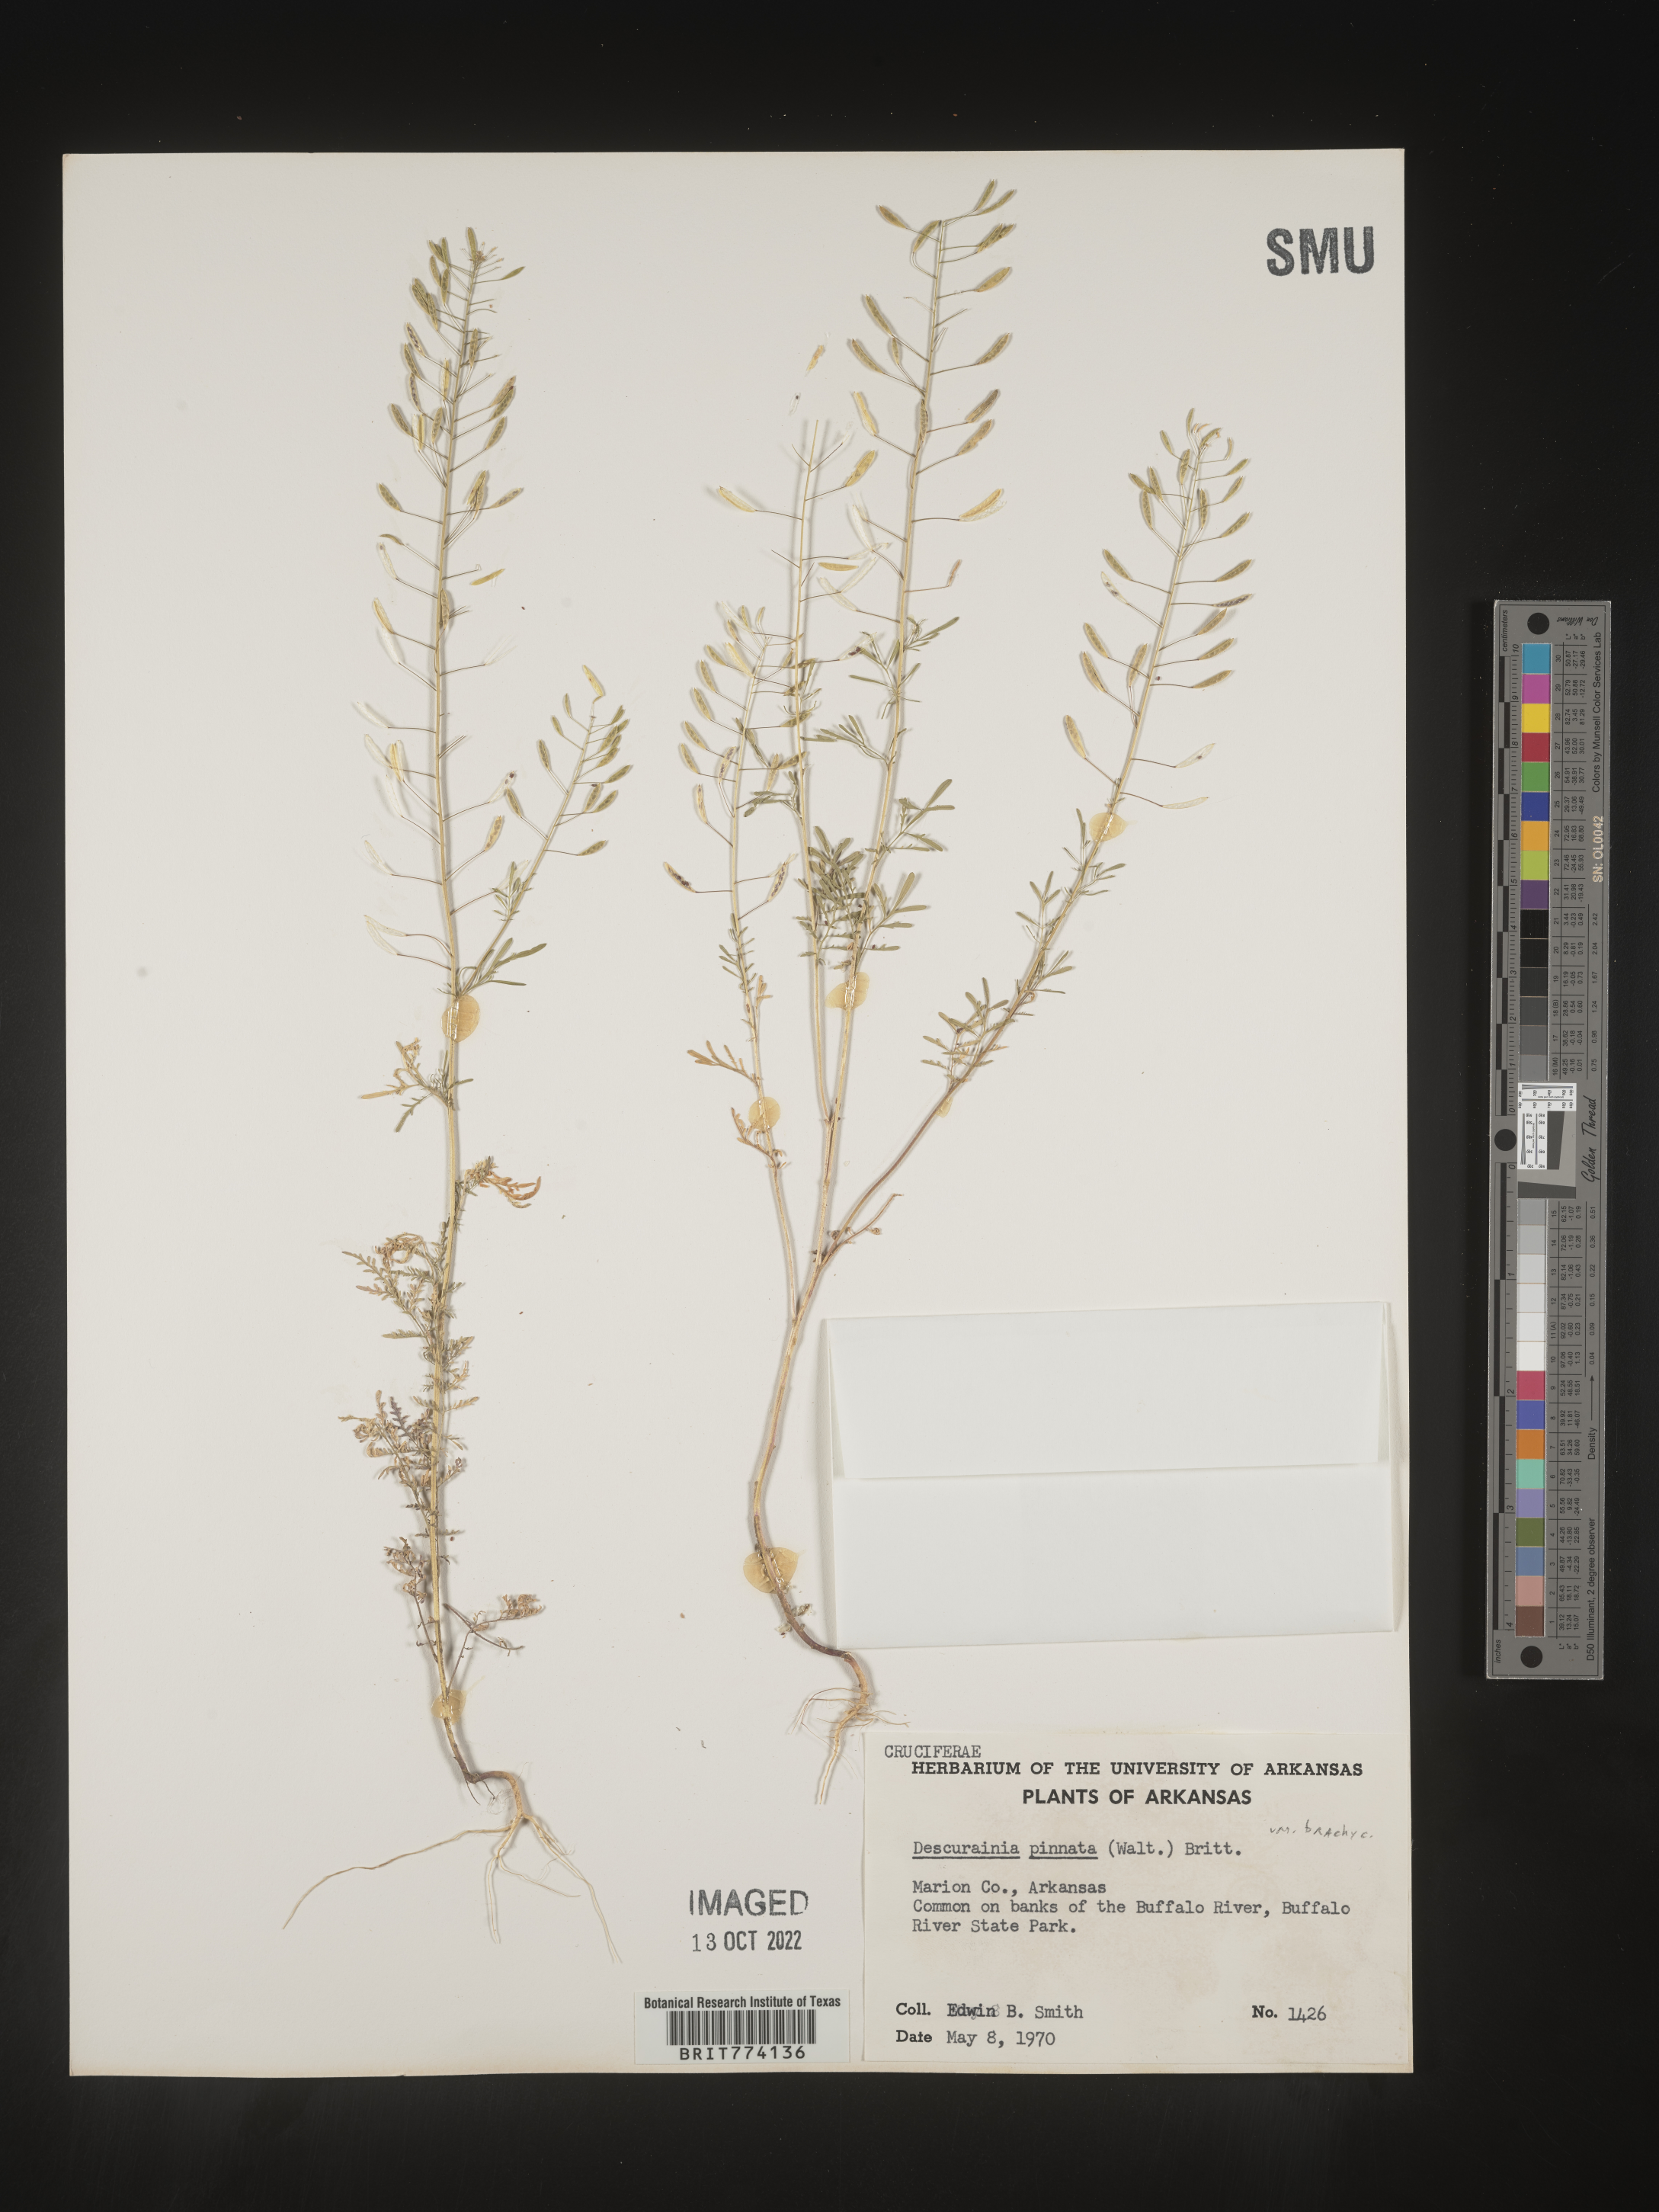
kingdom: Plantae
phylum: Tracheophyta
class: Magnoliopsida
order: Brassicales
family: Brassicaceae
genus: Descurainia
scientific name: Descurainia pinnata
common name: Western tansy mustard
